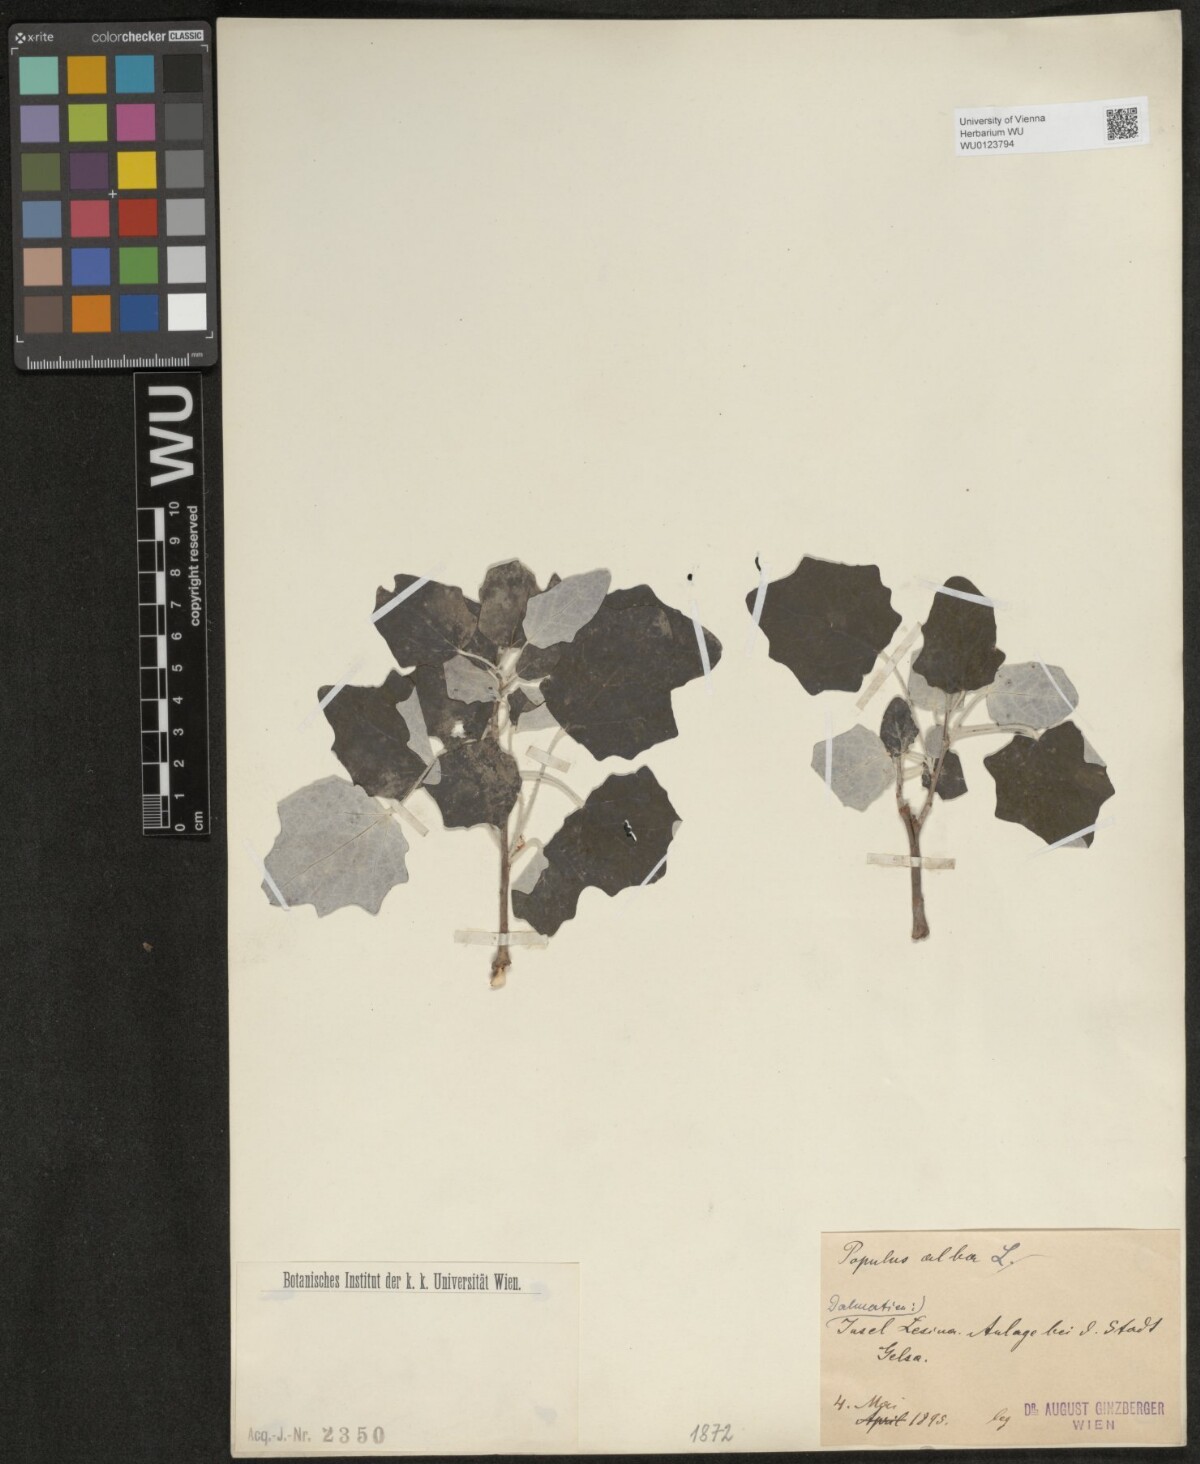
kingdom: Plantae
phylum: Tracheophyta
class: Magnoliopsida
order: Malpighiales
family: Salicaceae
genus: Populus
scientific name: Populus alba
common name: White poplar
